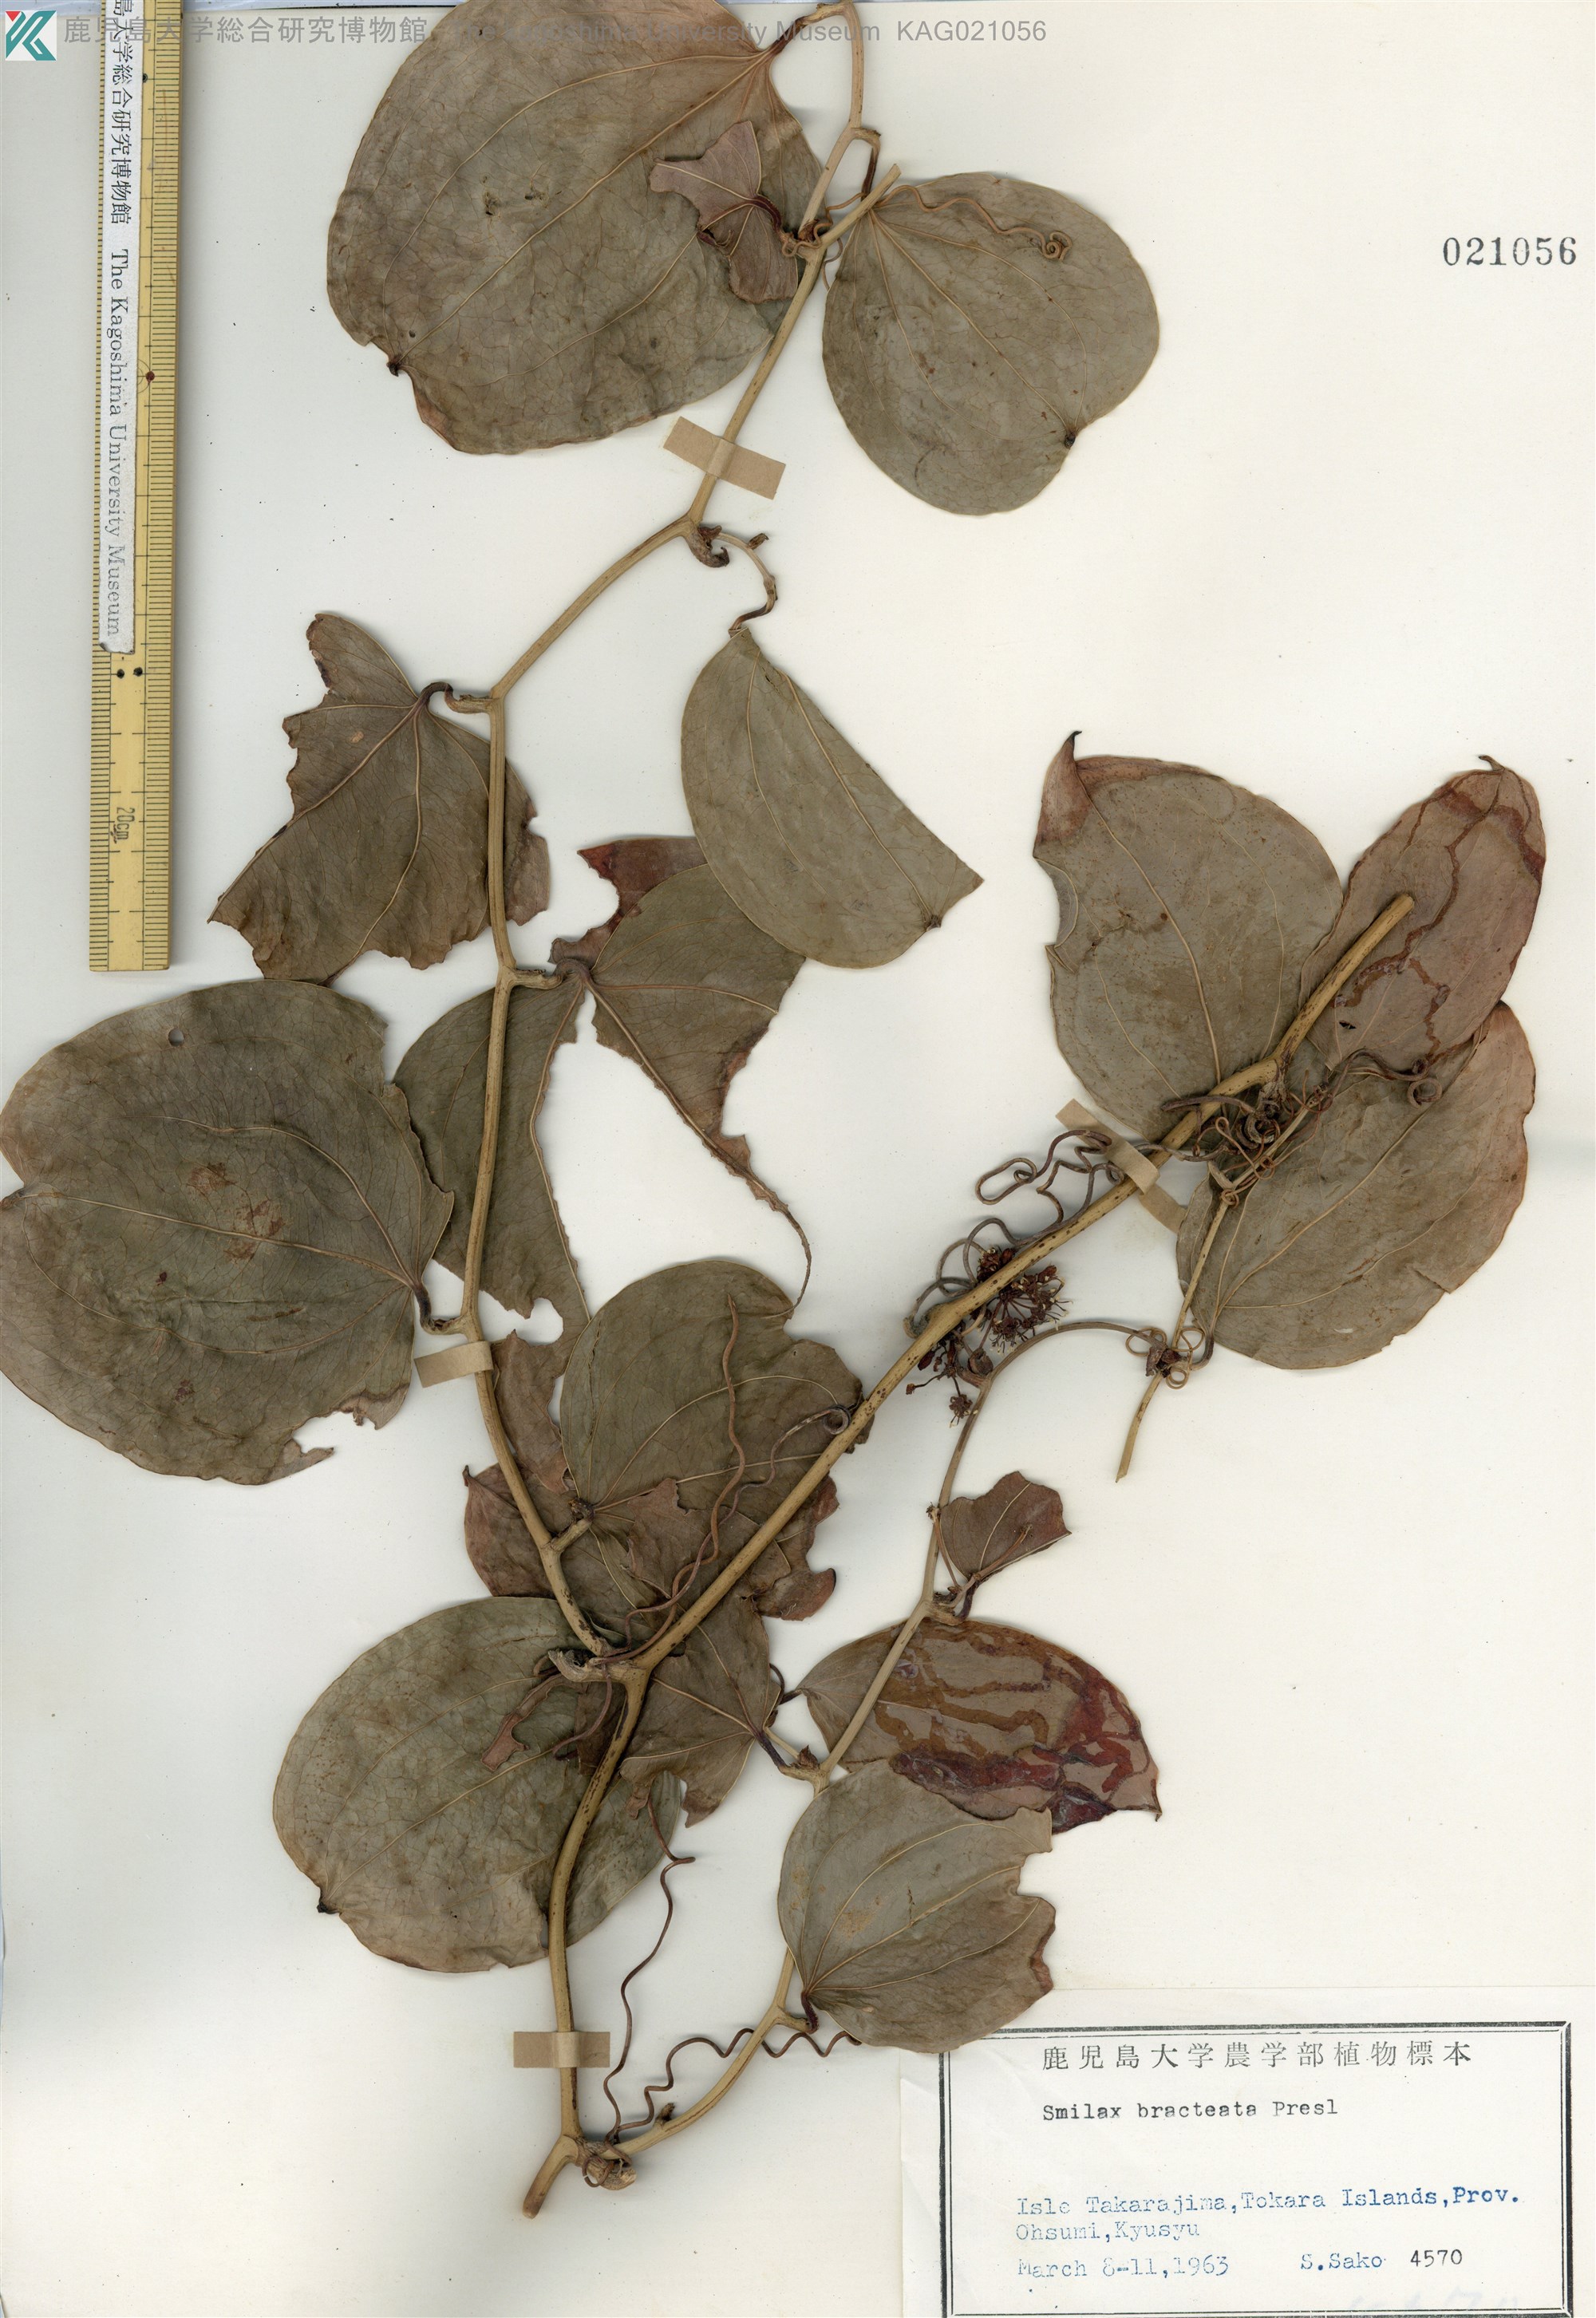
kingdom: Plantae
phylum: Tracheophyta
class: Liliopsida
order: Liliales
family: Smilacaceae
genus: Smilax
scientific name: Smilax bracteata
